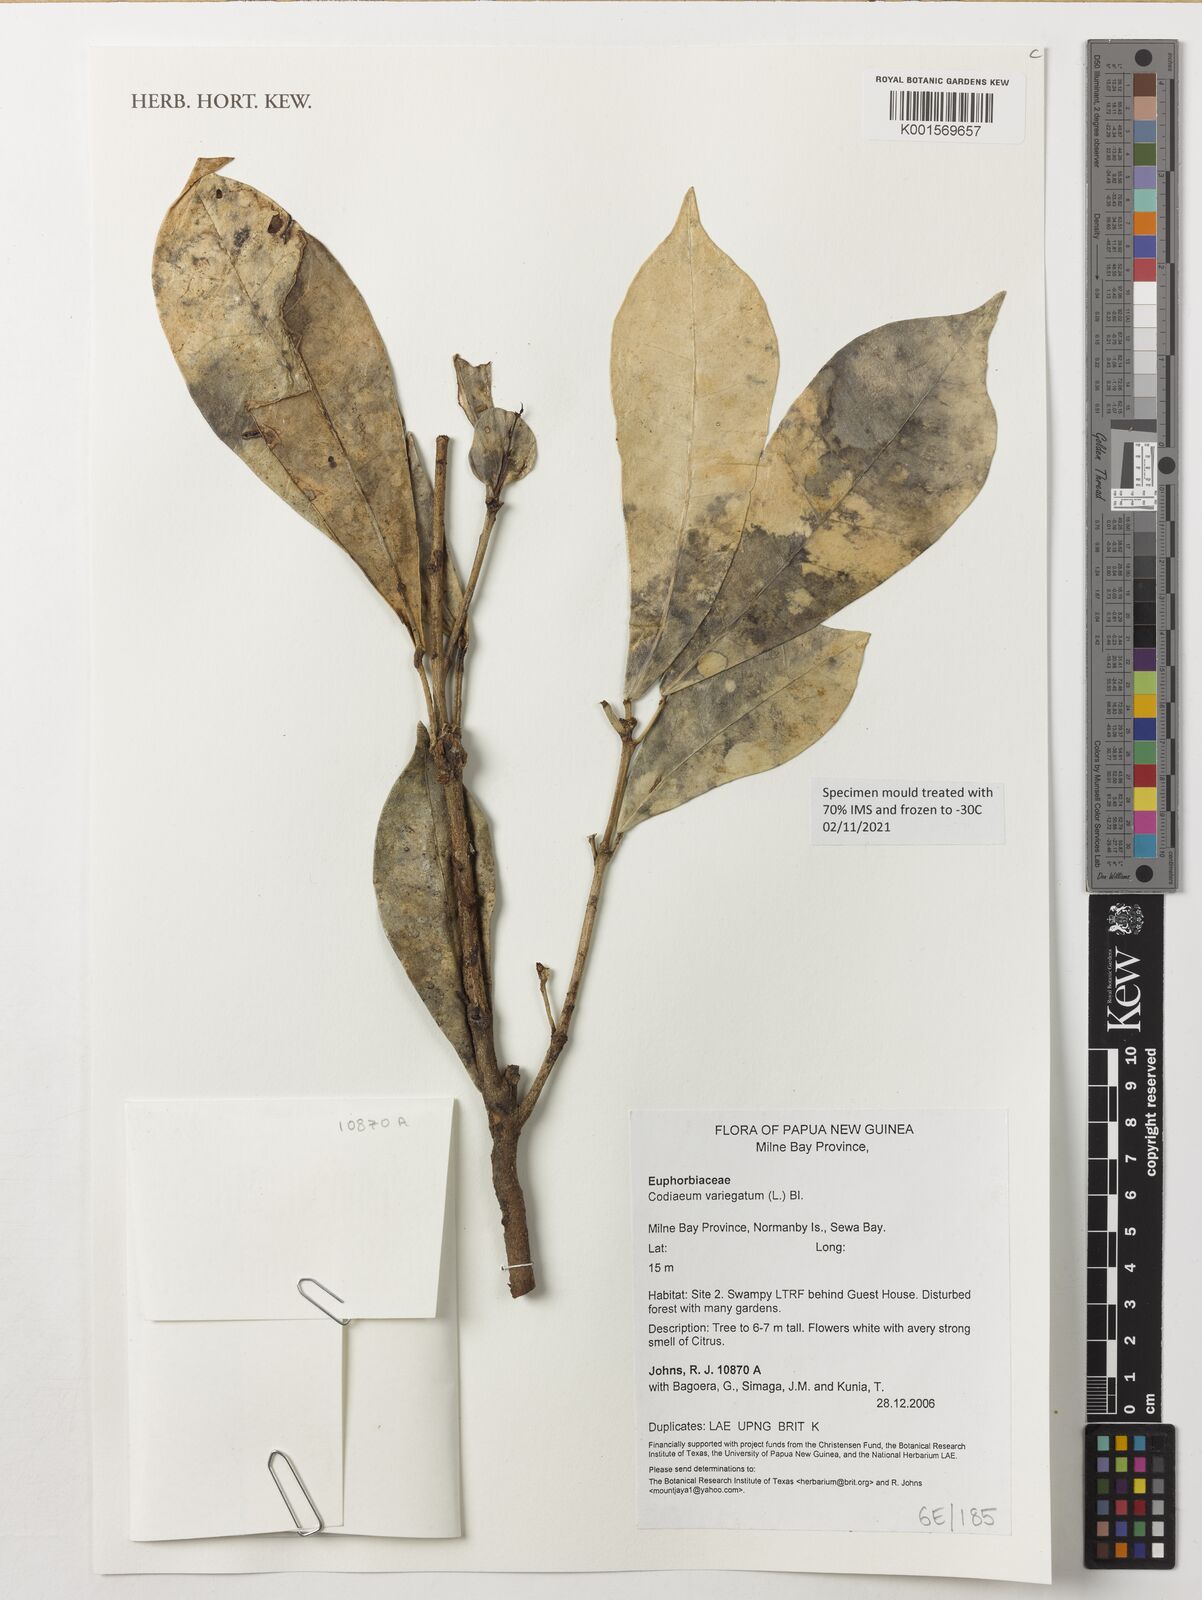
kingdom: Plantae
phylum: Tracheophyta
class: Magnoliopsida
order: Malpighiales
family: Euphorbiaceae
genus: Codiaeum
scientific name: Codiaeum variegatum
